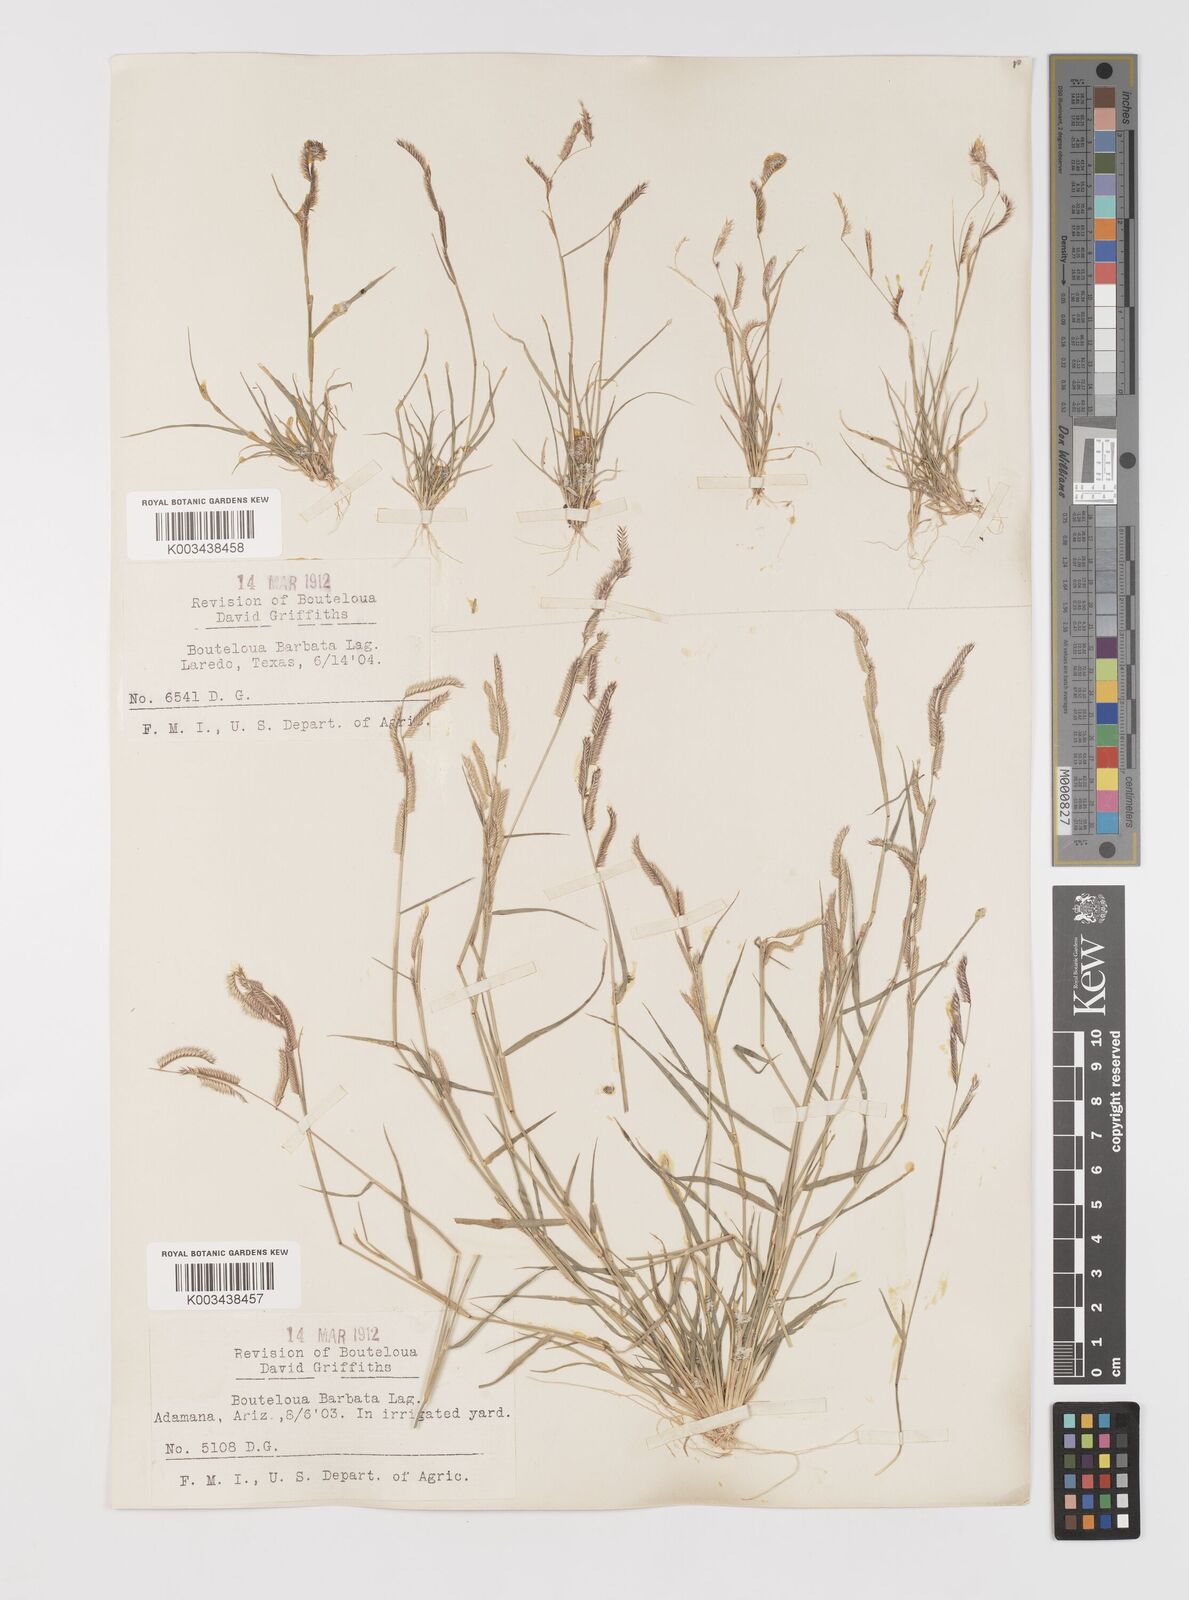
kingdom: Plantae
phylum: Tracheophyta
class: Liliopsida
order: Poales
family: Poaceae
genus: Bouteloua
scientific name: Bouteloua
